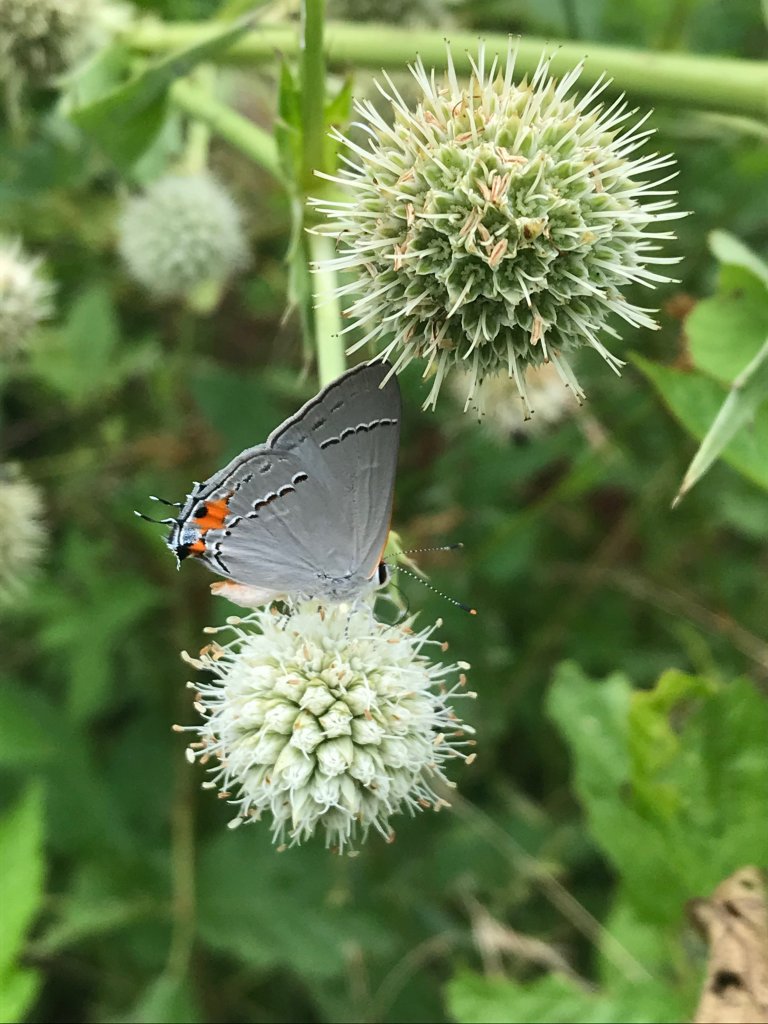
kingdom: Animalia
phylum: Arthropoda
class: Insecta
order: Lepidoptera
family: Lycaenidae
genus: Strymon
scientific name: Strymon melinus
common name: Gray Hairstreak
